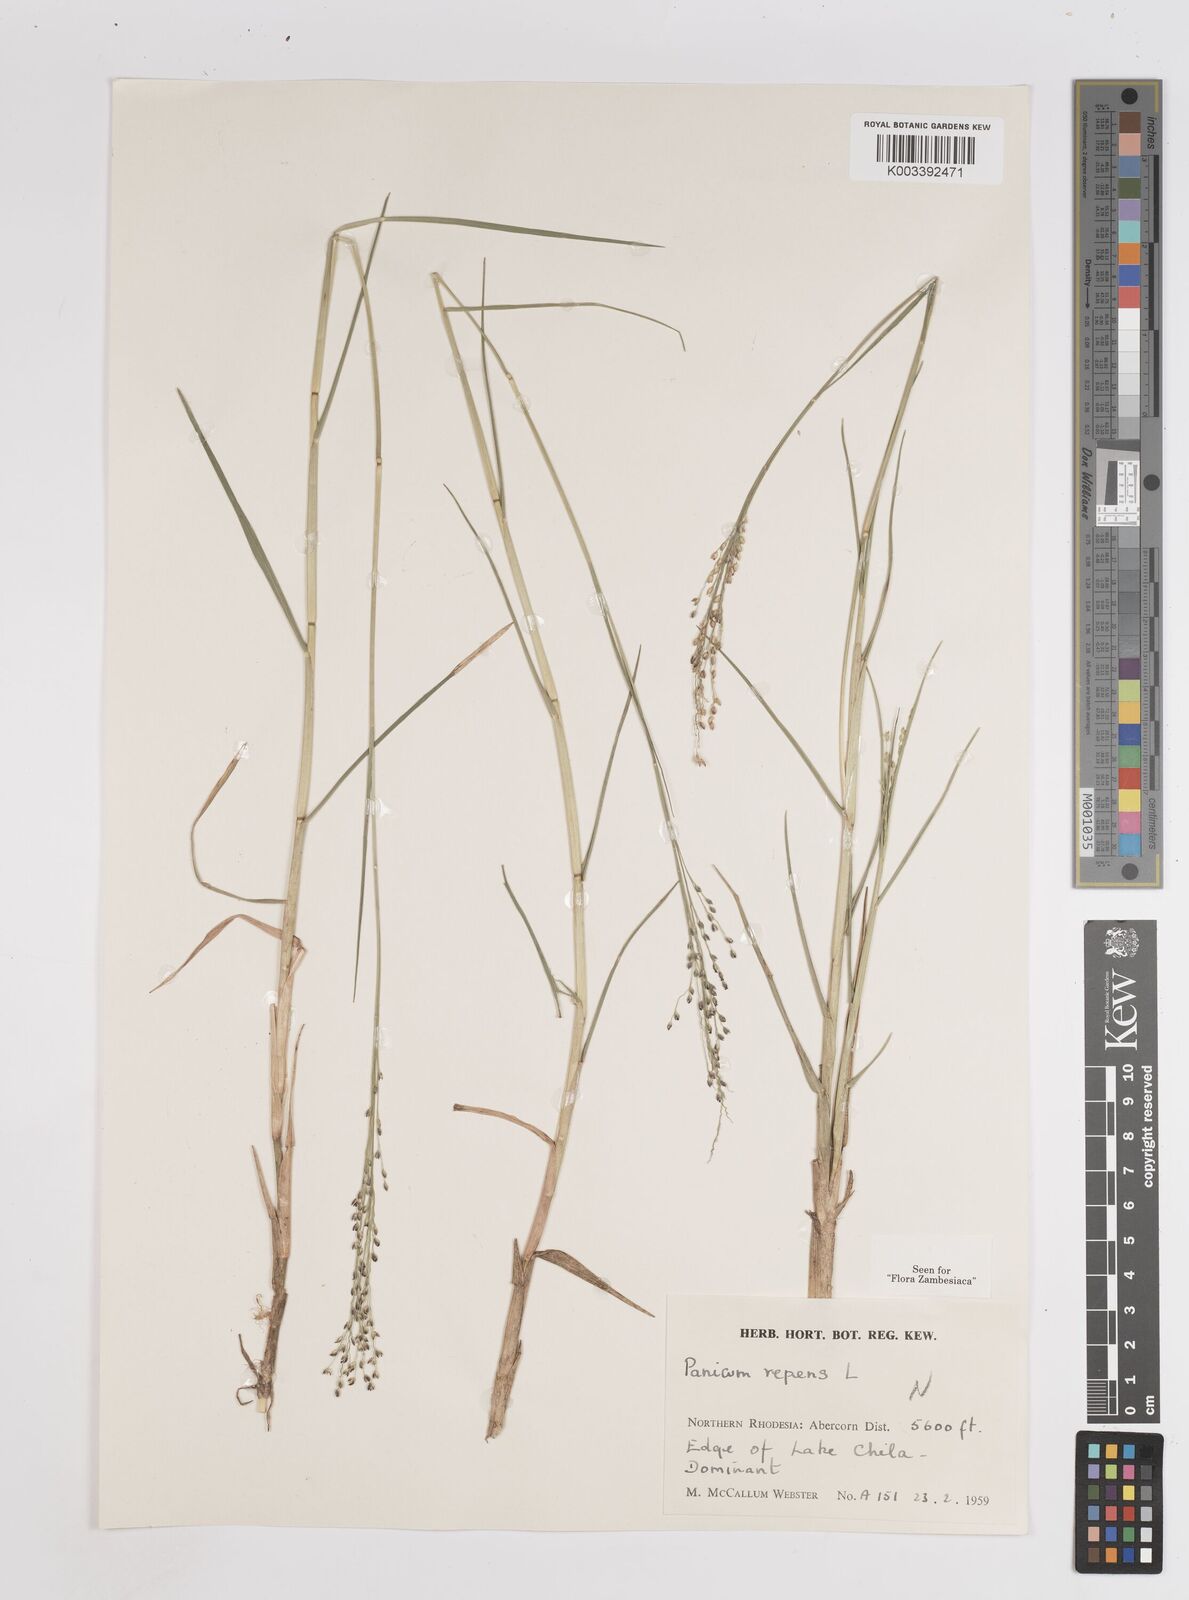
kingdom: Plantae
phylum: Tracheophyta
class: Liliopsida
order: Poales
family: Poaceae
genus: Panicum
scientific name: Panicum repens
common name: Torpedo grass
